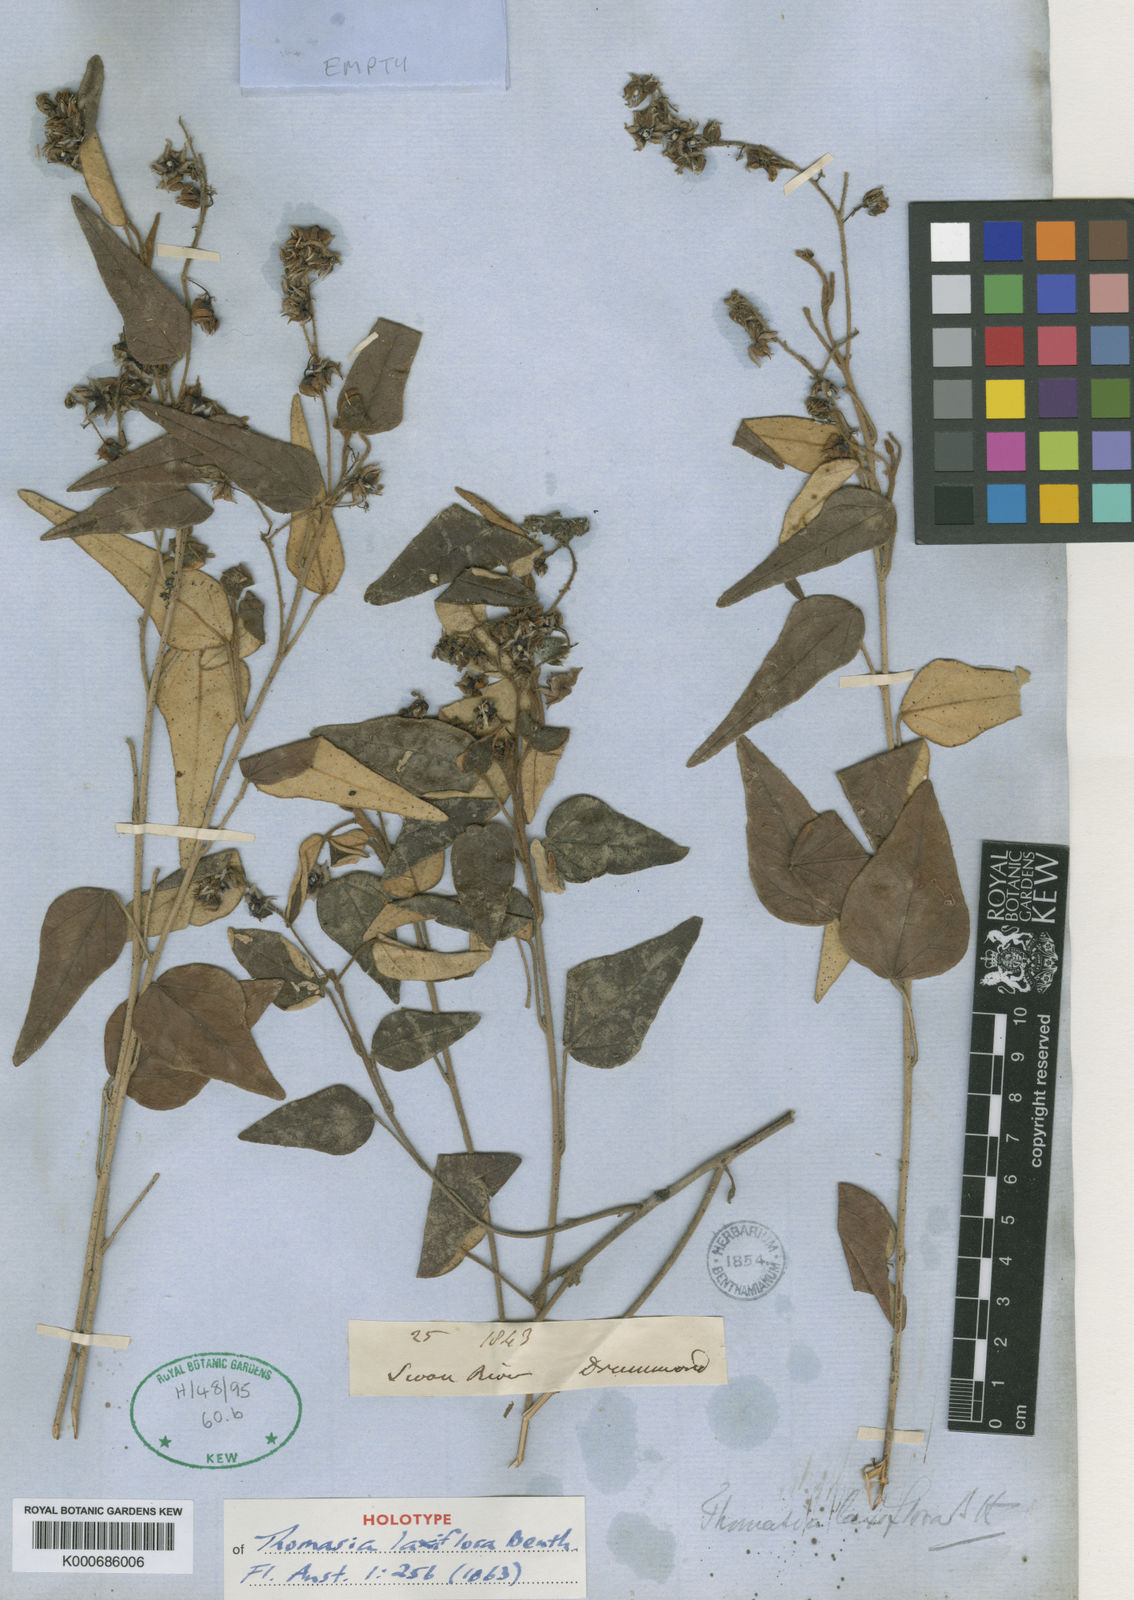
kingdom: Plantae
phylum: Tracheophyta
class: Magnoliopsida
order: Malvales
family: Malvaceae
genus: Lasiopetalum
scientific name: Lasiopetalum laxiflorum
